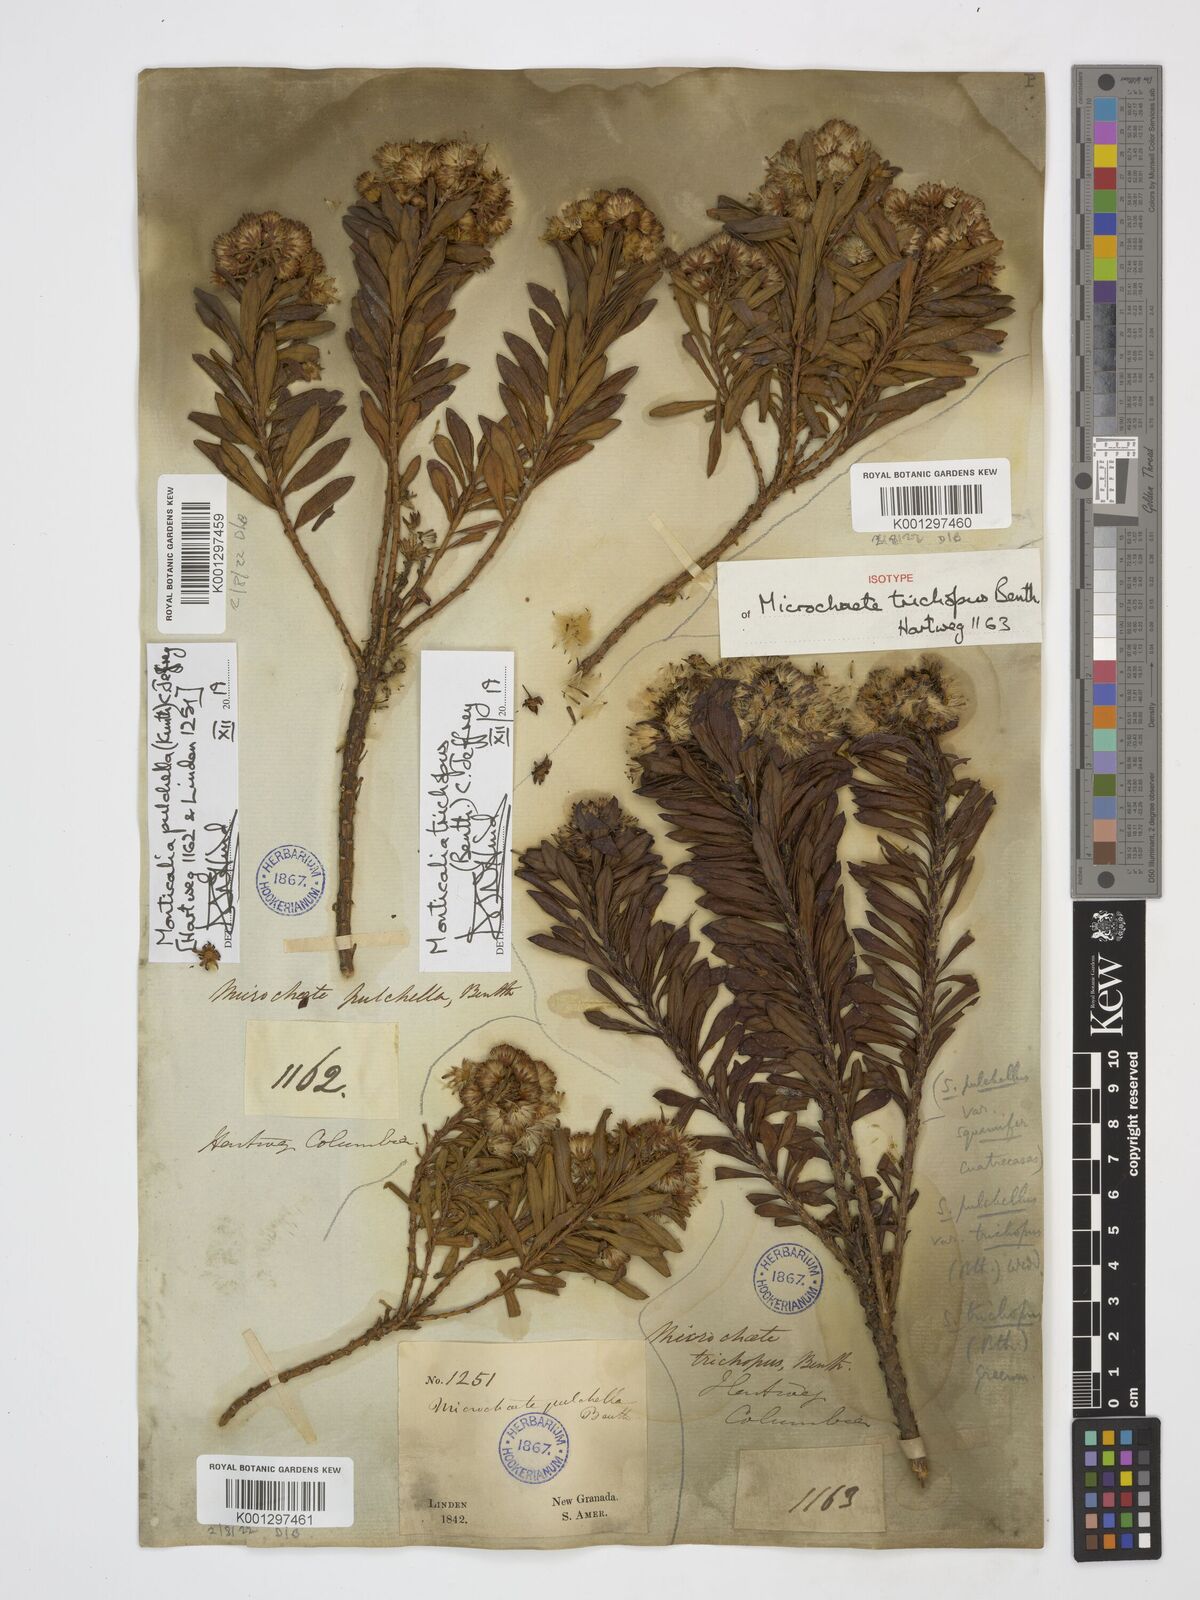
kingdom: Plantae
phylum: Tracheophyta
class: Magnoliopsida
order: Asterales
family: Asteraceae
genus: Monticalia
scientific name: Monticalia pulchella
